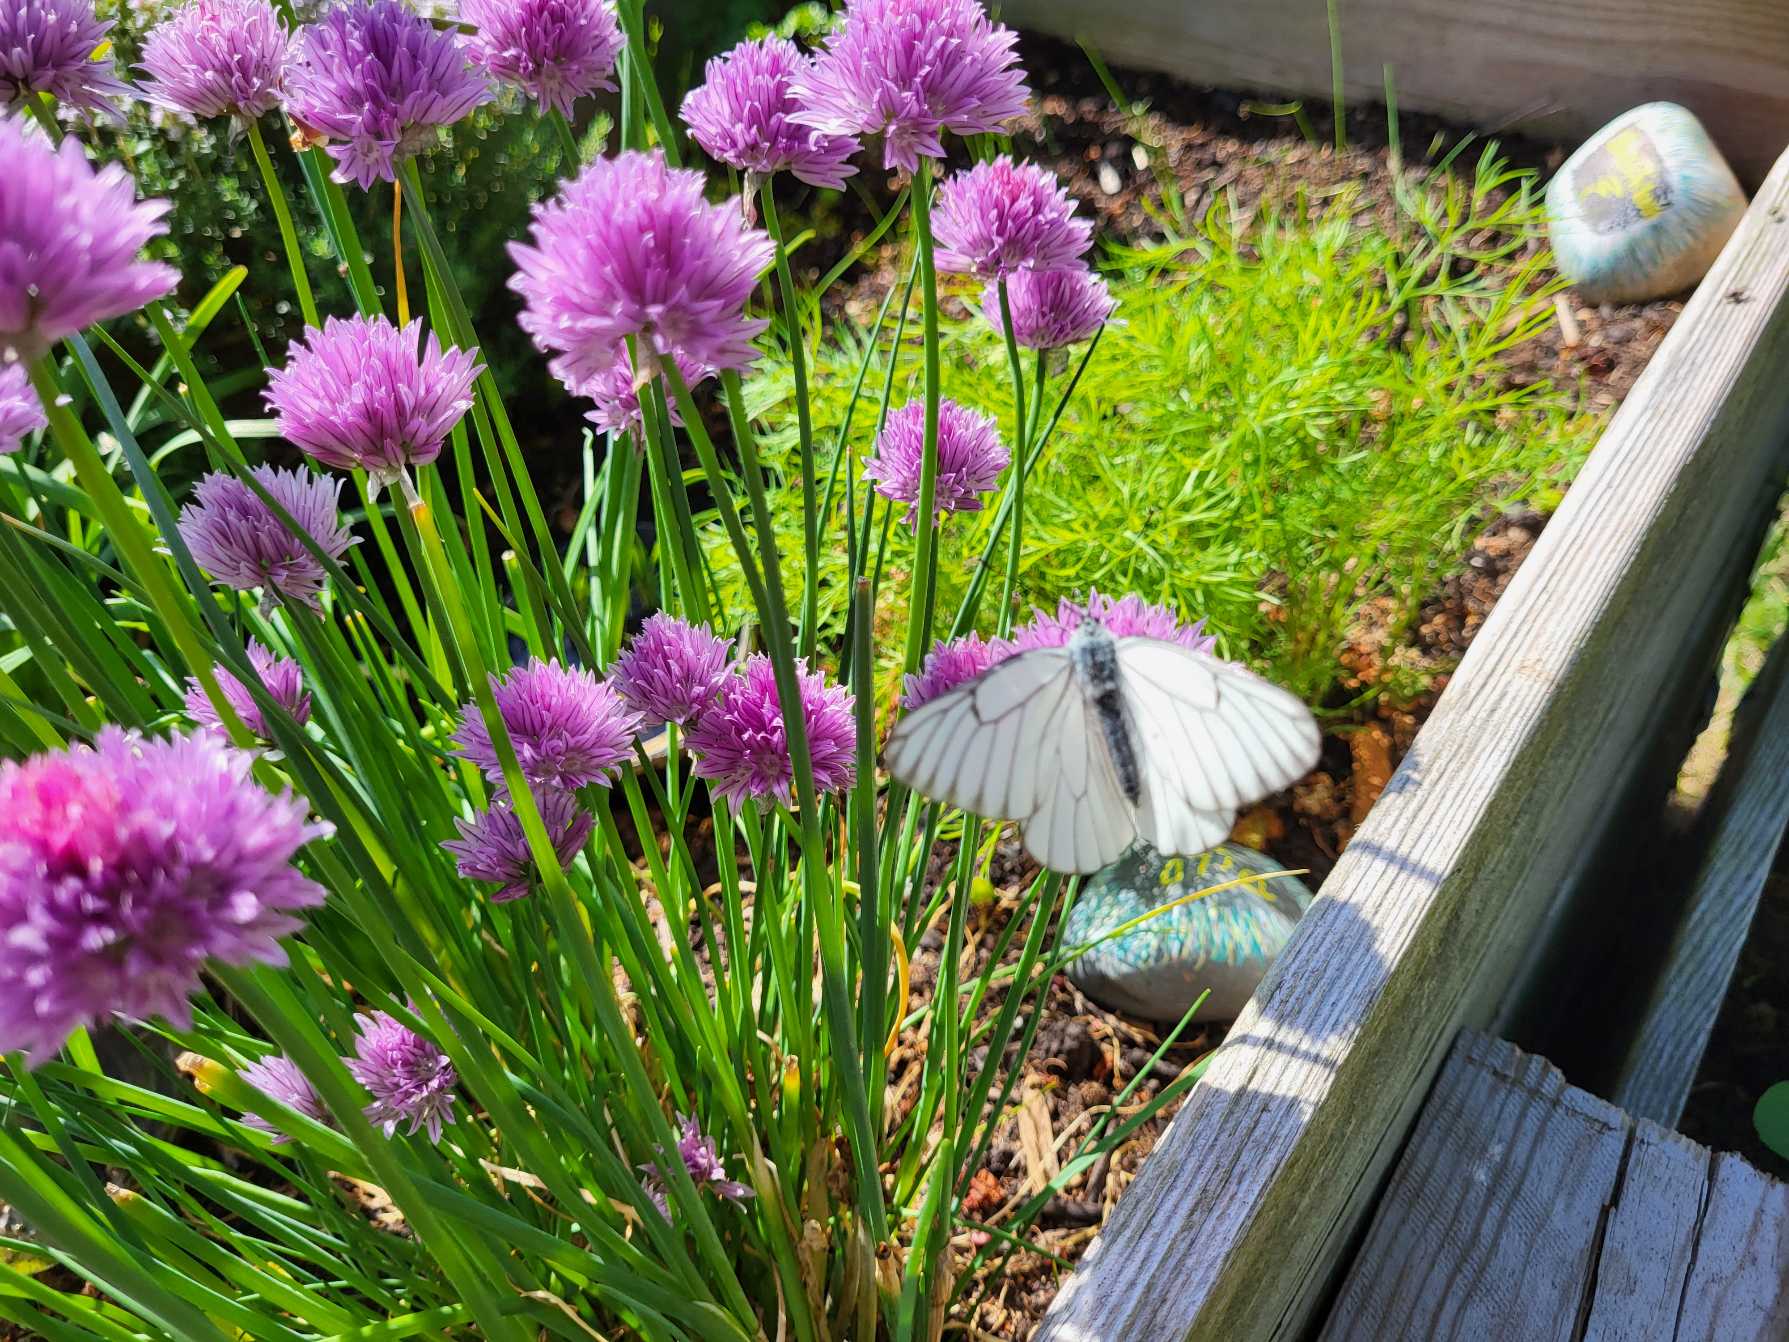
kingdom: Animalia
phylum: Arthropoda
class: Insecta
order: Lepidoptera
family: Pieridae
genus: Aporia
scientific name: Aporia crataegi
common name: Sortåret hvidvinge
